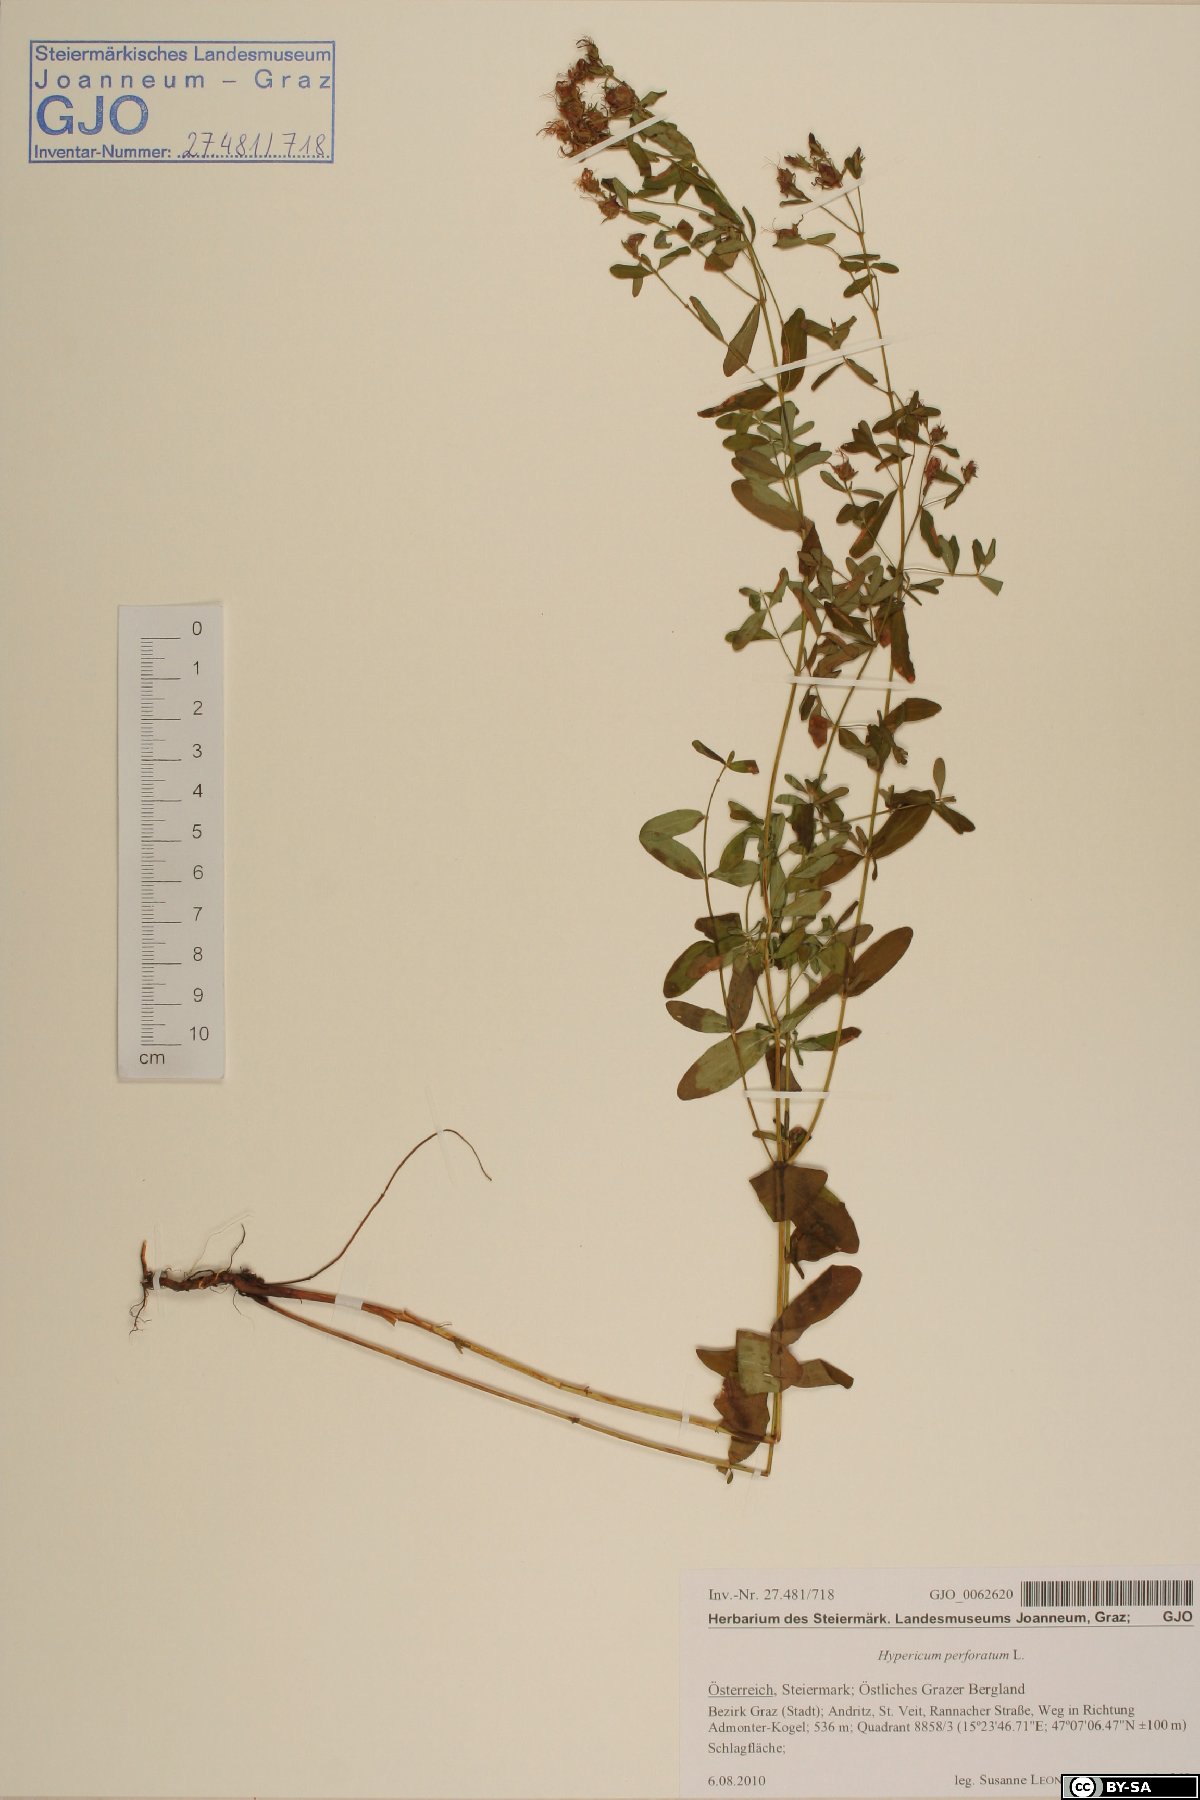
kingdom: Plantae
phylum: Tracheophyta
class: Magnoliopsida
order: Malpighiales
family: Hypericaceae
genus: Hypericum
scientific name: Hypericum perforatum
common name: Common st. johnswort
